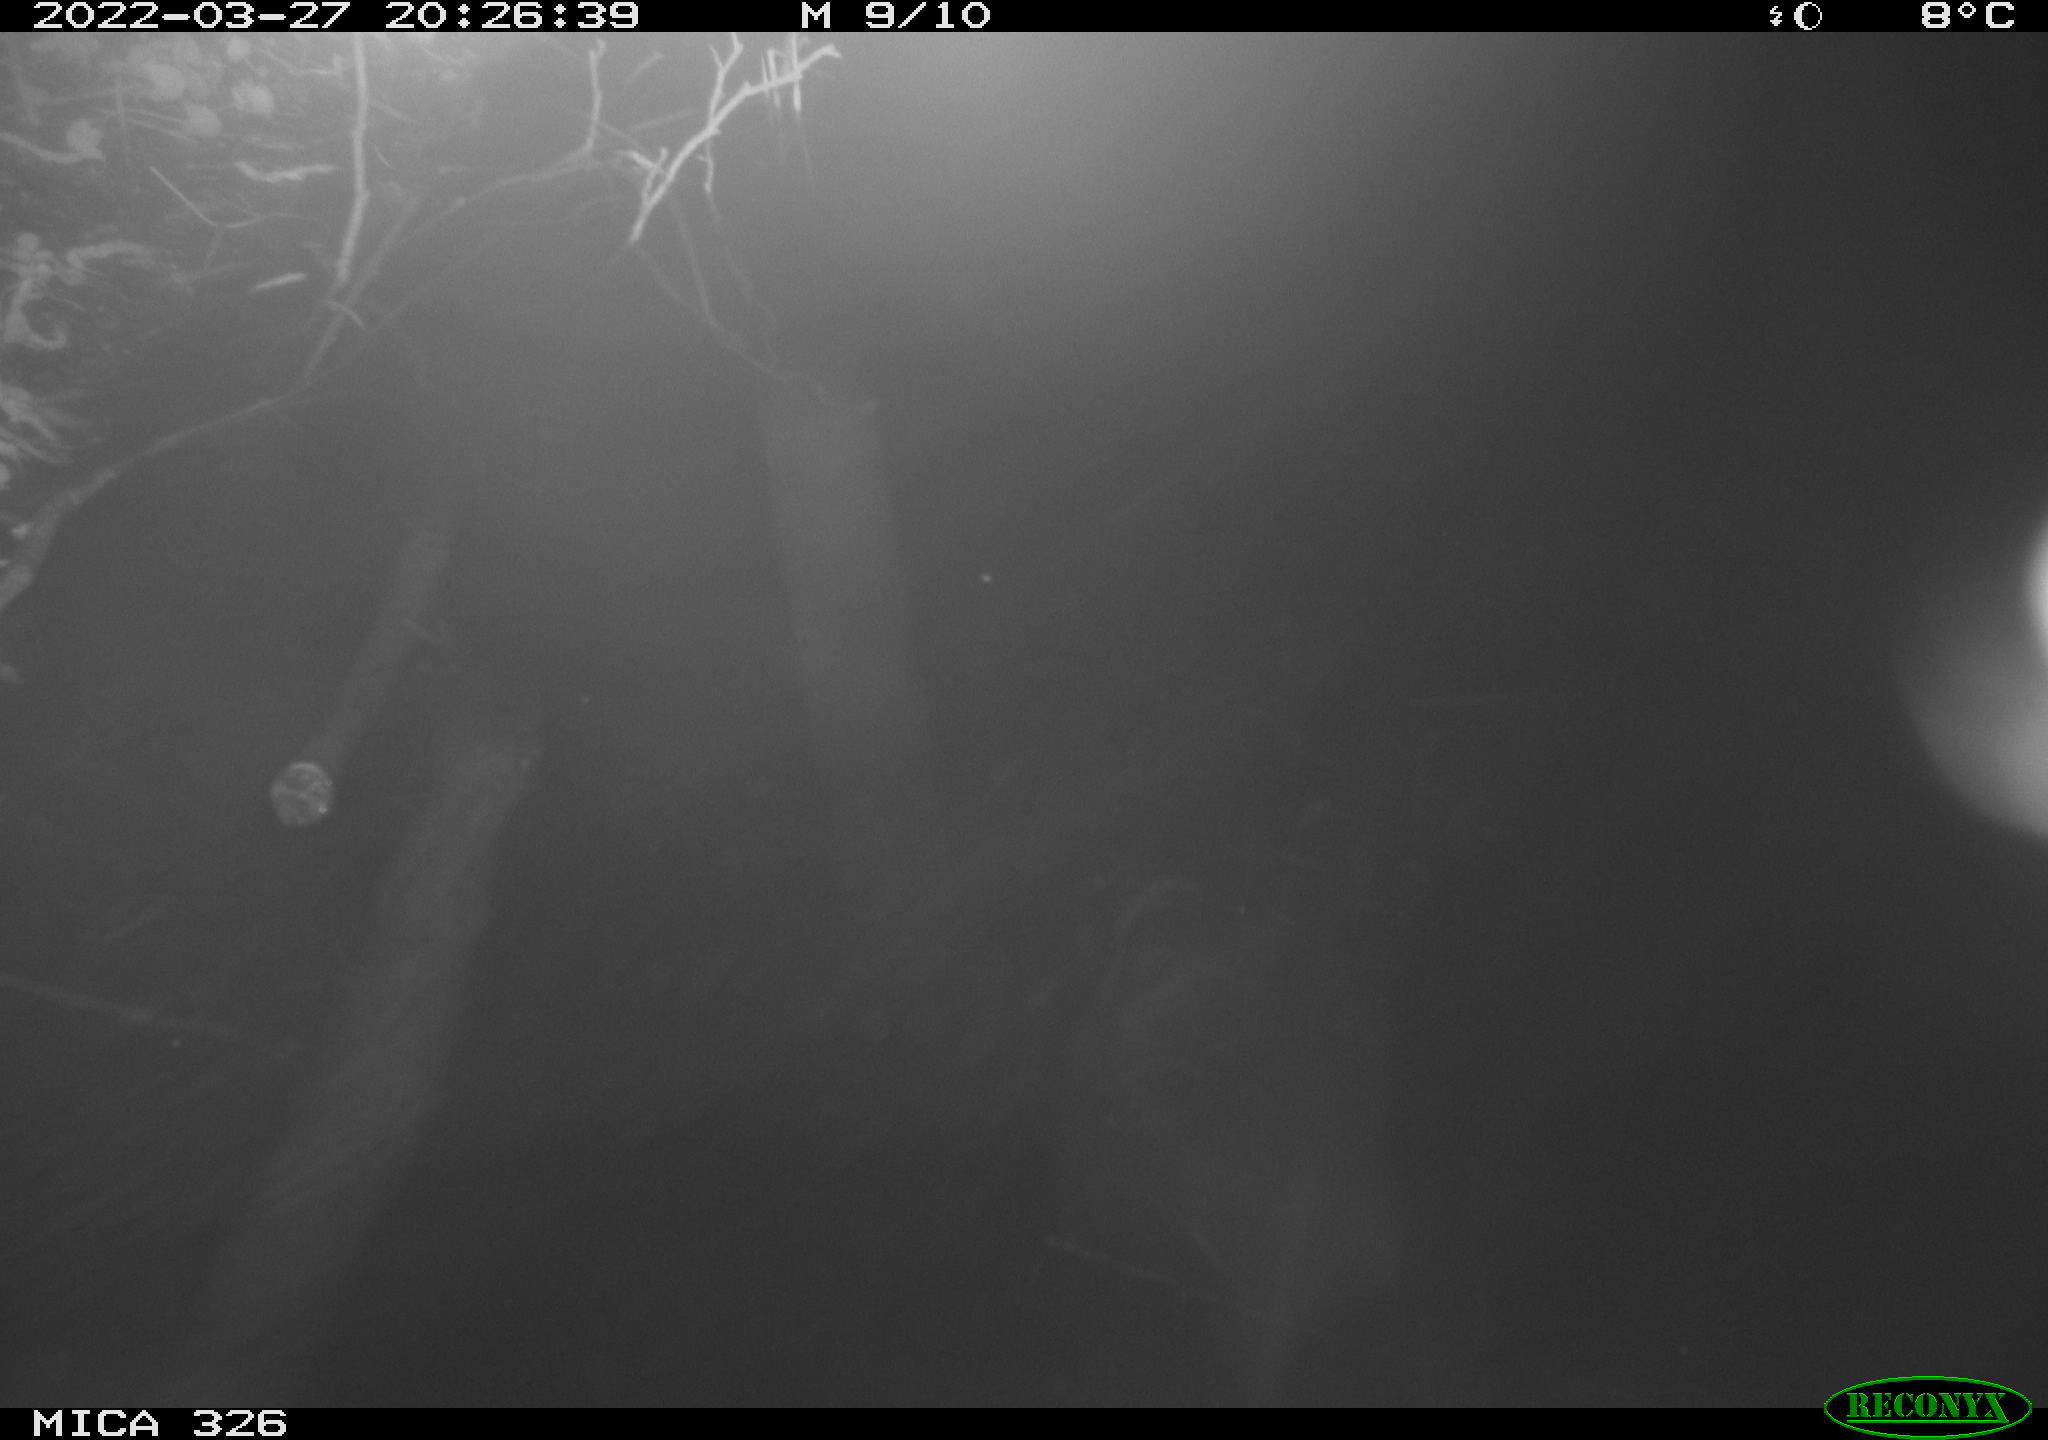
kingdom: Animalia
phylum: Chordata
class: Mammalia
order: Rodentia
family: Muridae
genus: Rattus
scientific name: Rattus norvegicus
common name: Brown rat
